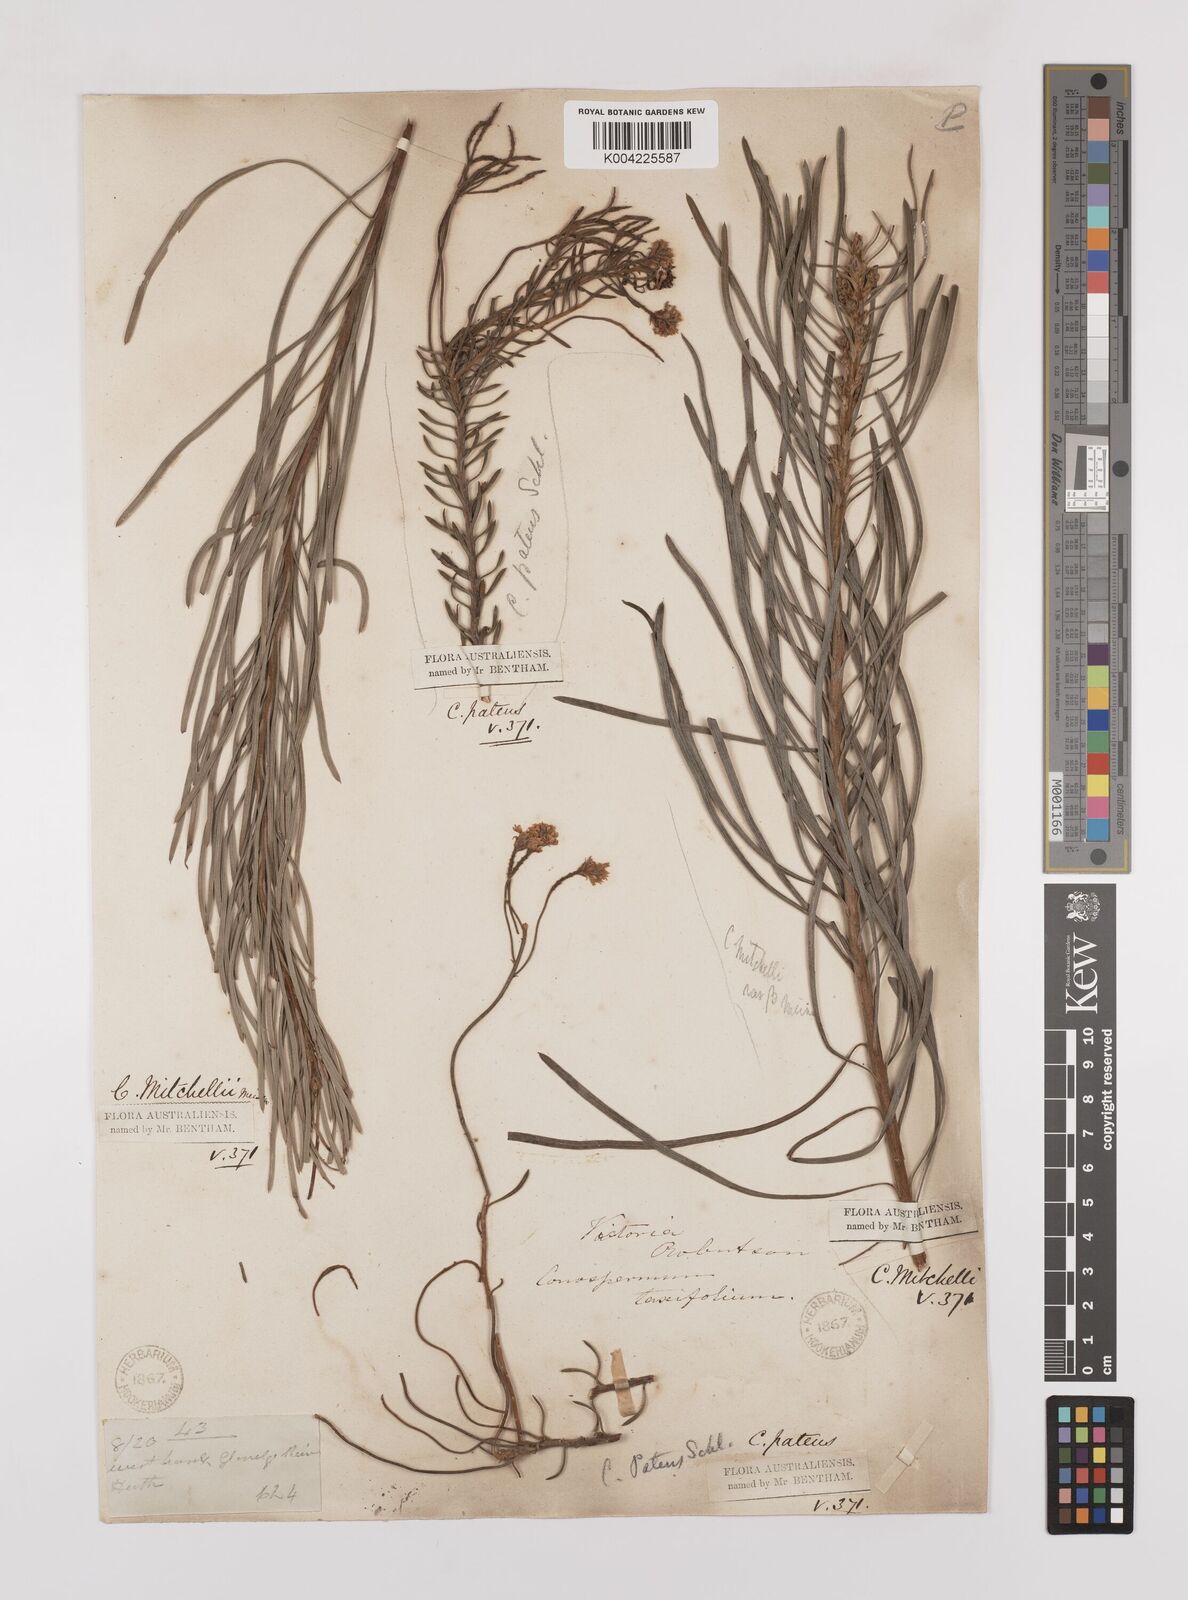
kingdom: Plantae
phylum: Tracheophyta
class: Magnoliopsida
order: Proteales
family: Proteaceae
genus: Conospermum
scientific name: Conospermum mitchellii
